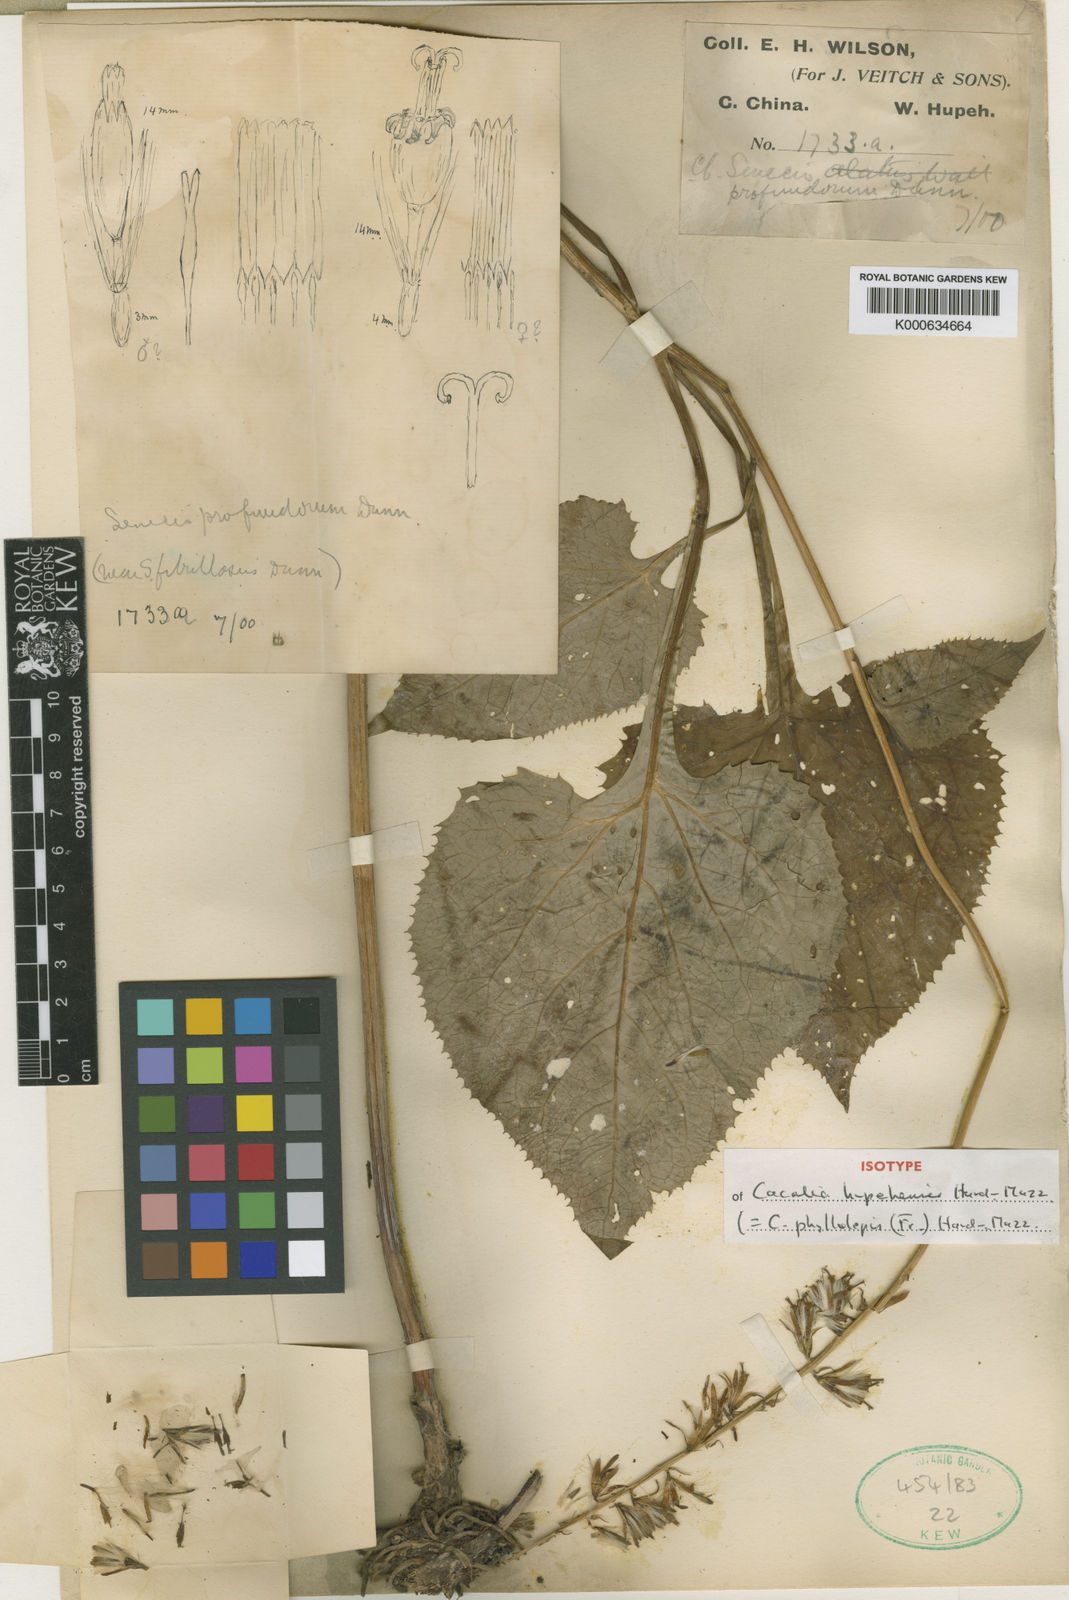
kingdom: Plantae
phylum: Tracheophyta
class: Magnoliopsida
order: Asterales
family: Asteraceae
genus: Parasenecio
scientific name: Parasenecio phyllolepis
